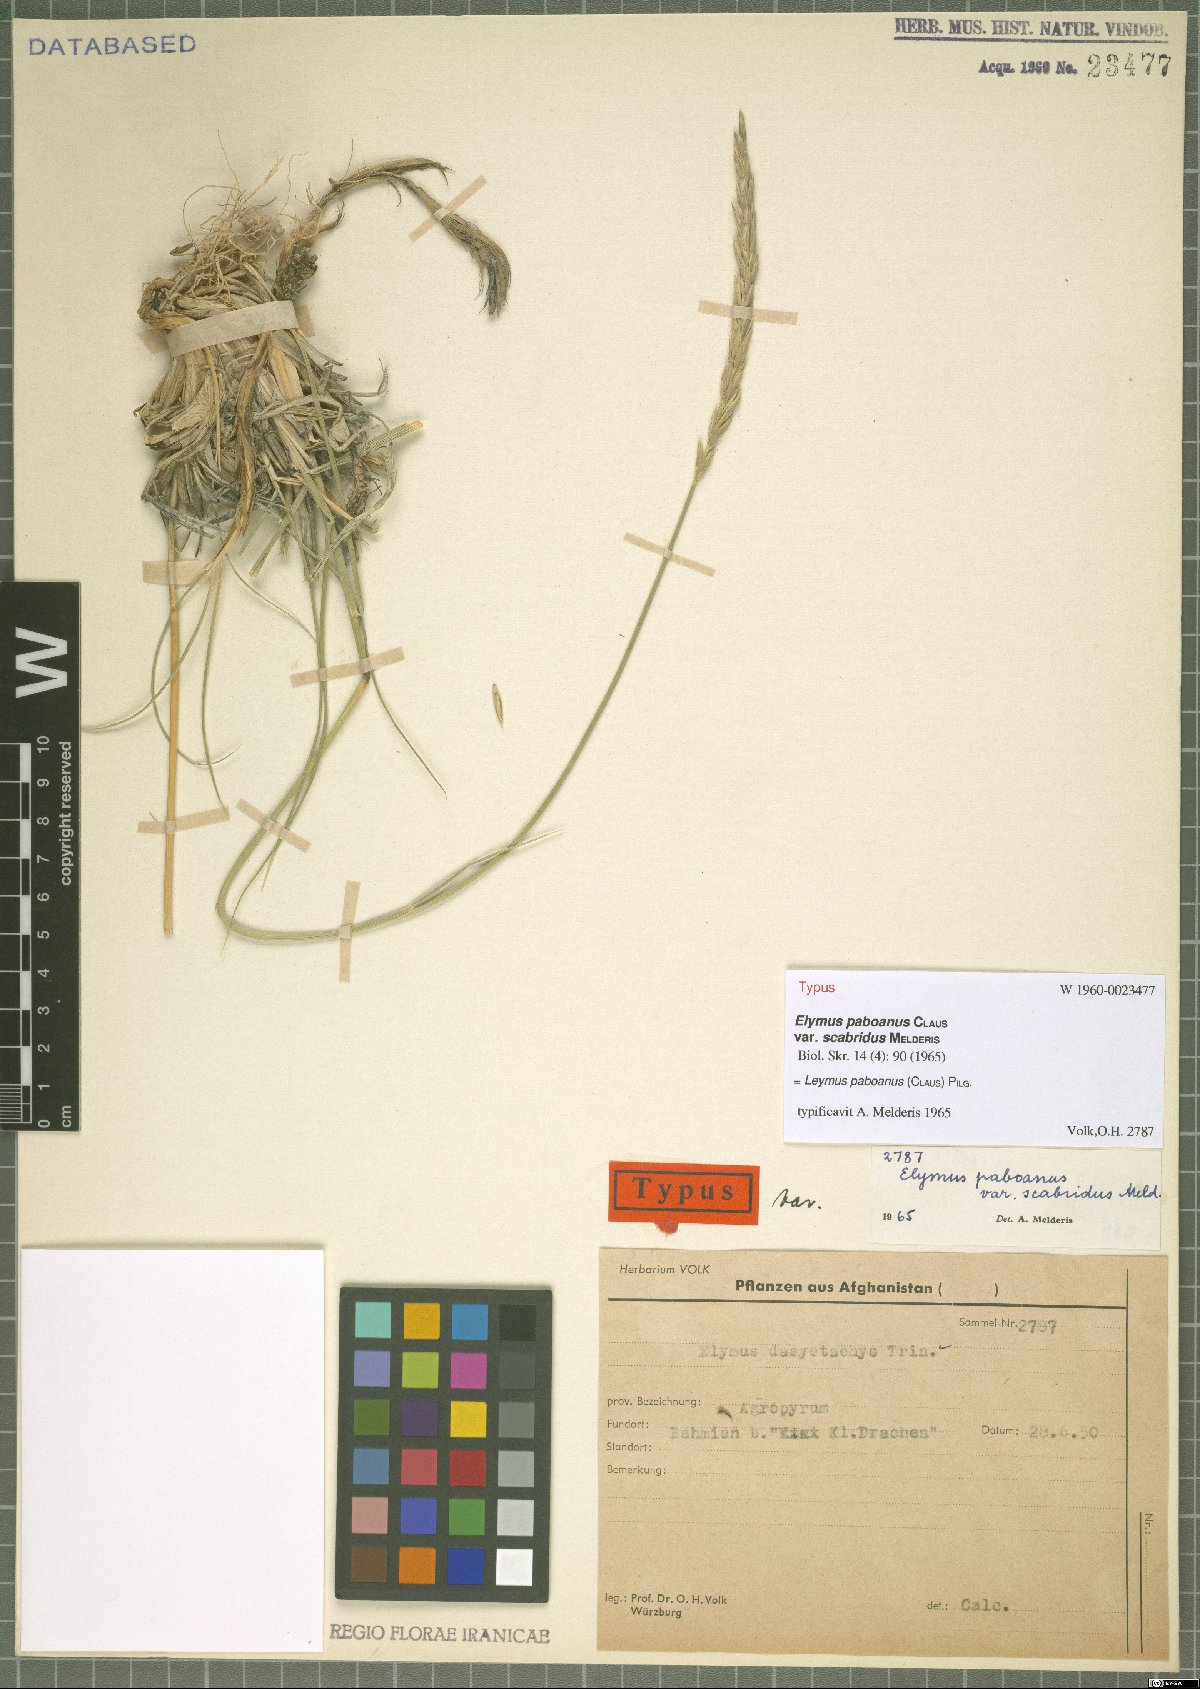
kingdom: Plantae
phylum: Tracheophyta
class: Liliopsida
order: Poales
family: Poaceae
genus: Leymus
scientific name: Leymus paboanus
